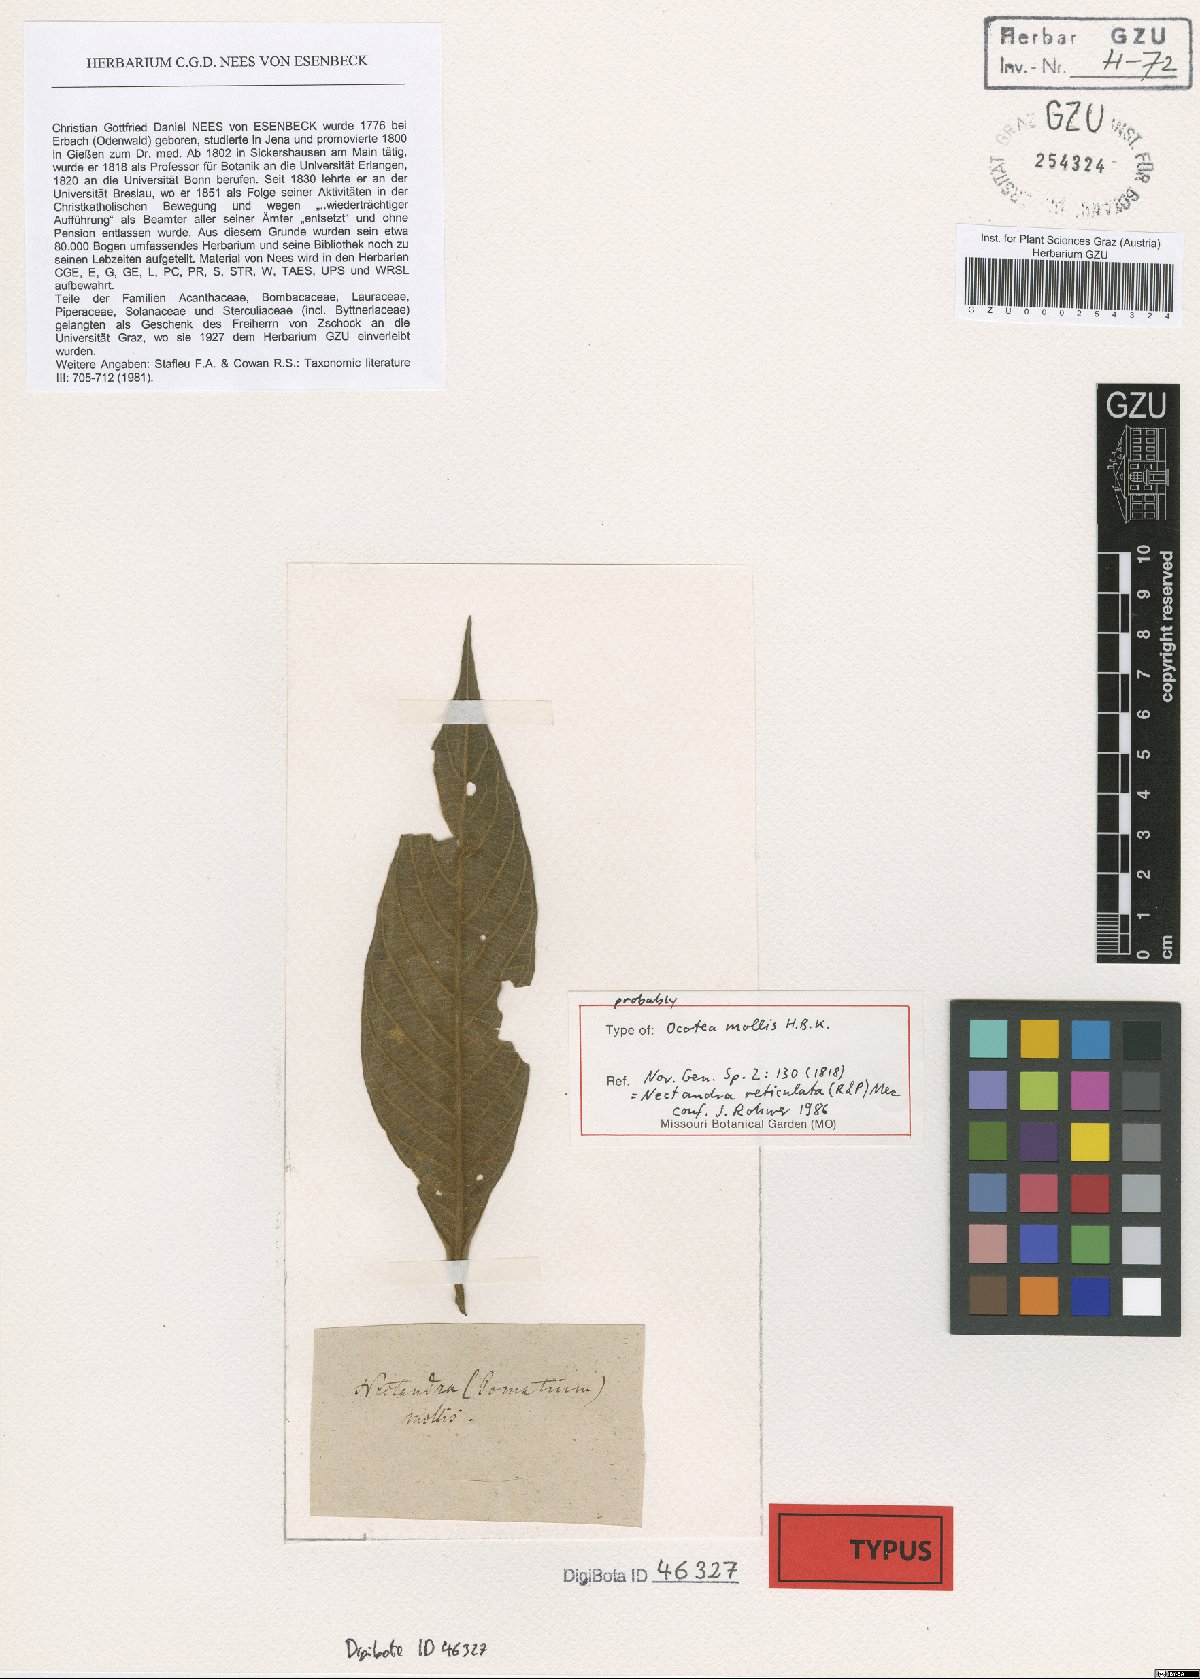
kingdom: Plantae
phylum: Tracheophyta
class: Magnoliopsida
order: Laurales
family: Lauraceae
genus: Nectandra
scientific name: Nectandra villosa
